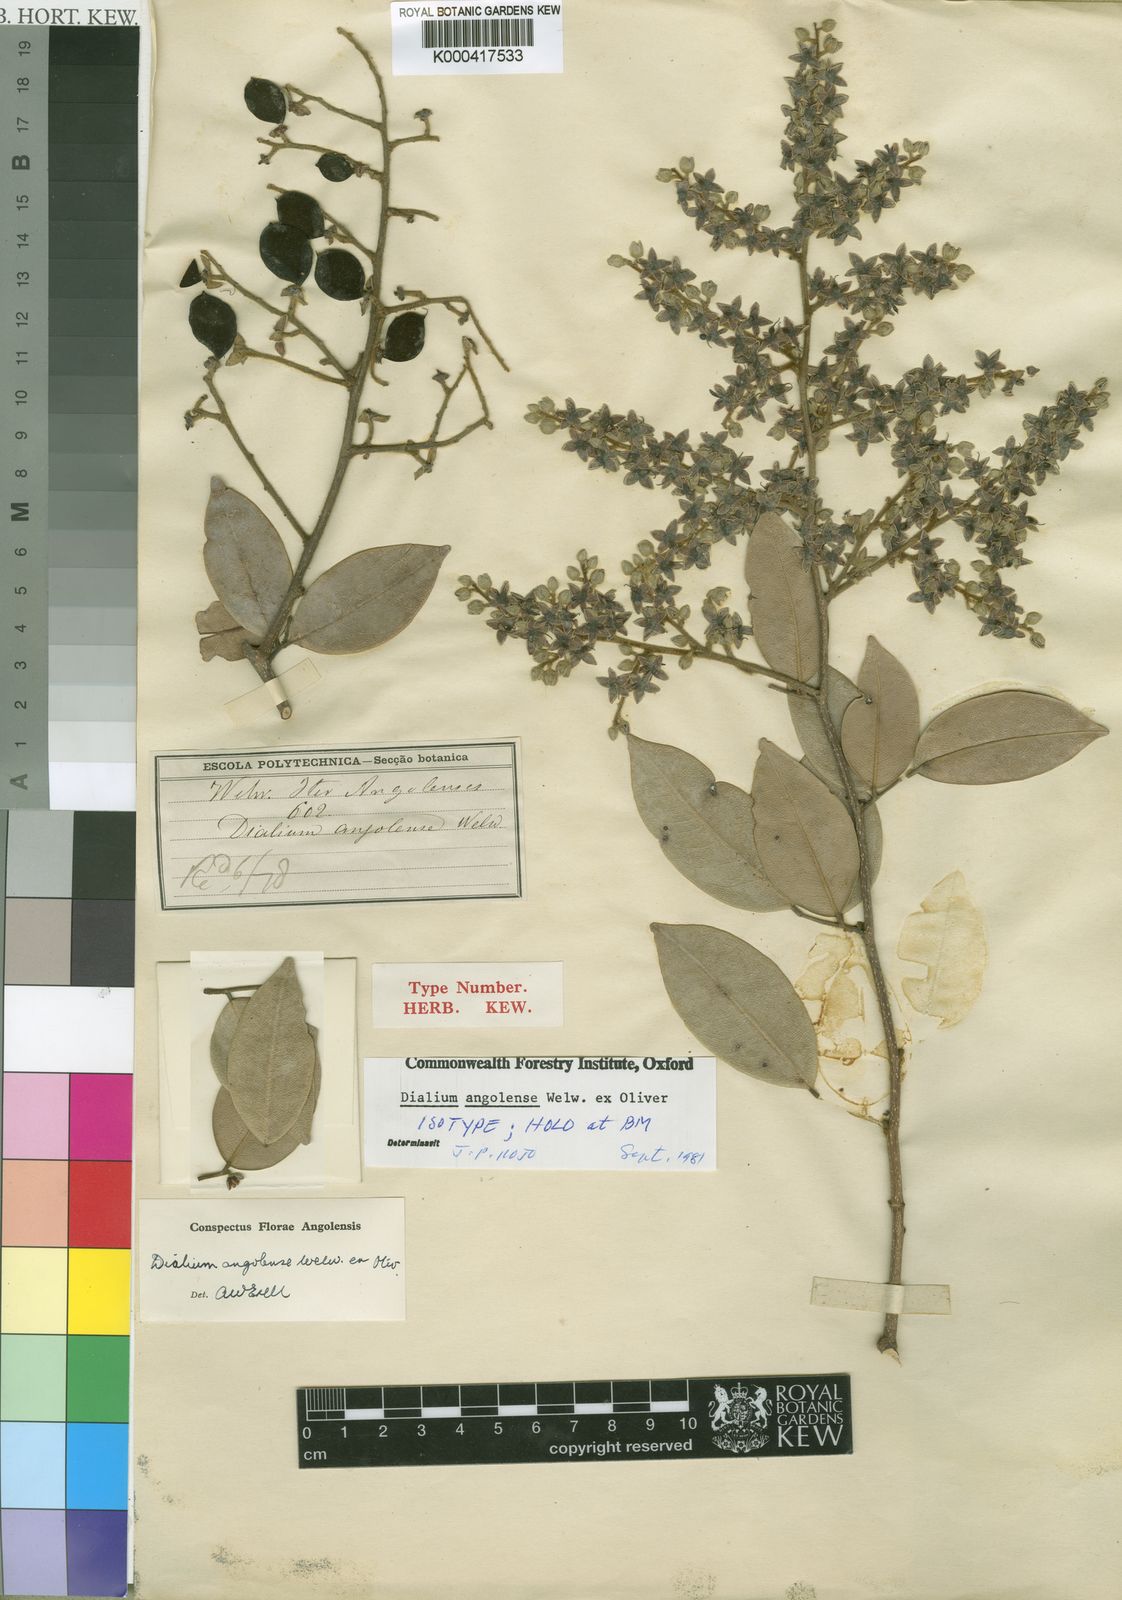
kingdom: Plantae
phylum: Tracheophyta
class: Magnoliopsida
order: Fabales
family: Fabaceae
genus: Dialium
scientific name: Dialium angolense
